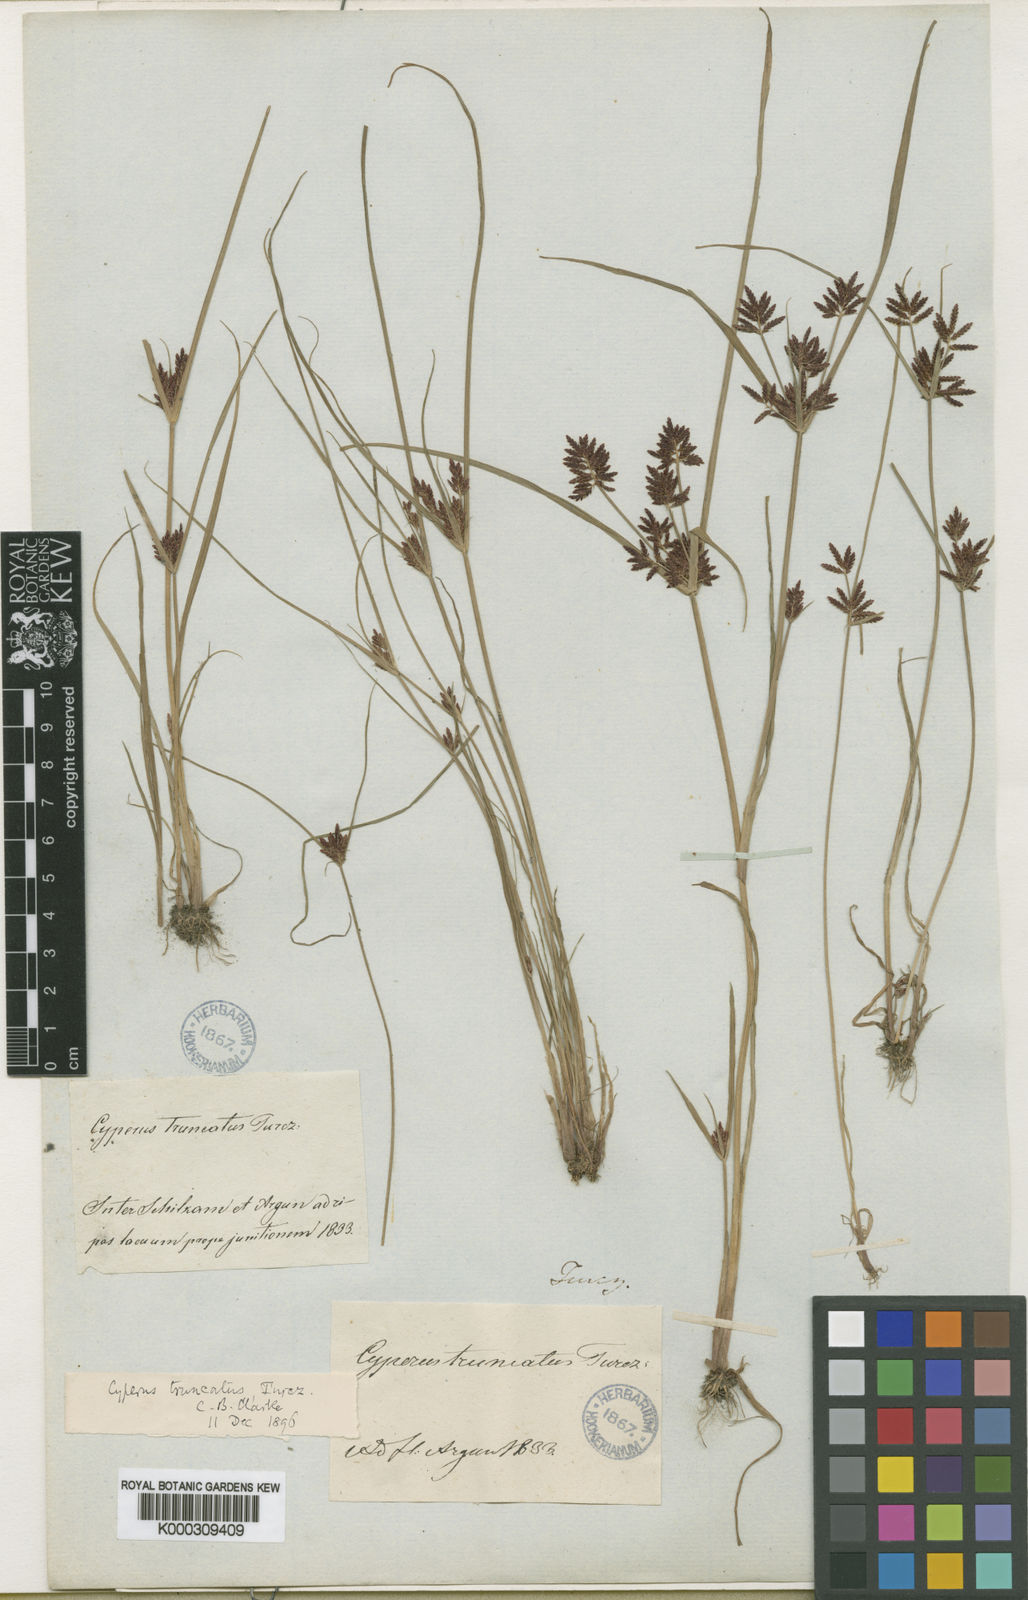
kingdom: Plantae
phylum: Tracheophyta
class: Liliopsida
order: Poales
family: Cyperaceae
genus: Cyperus
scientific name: Cyperus orthostachyus
